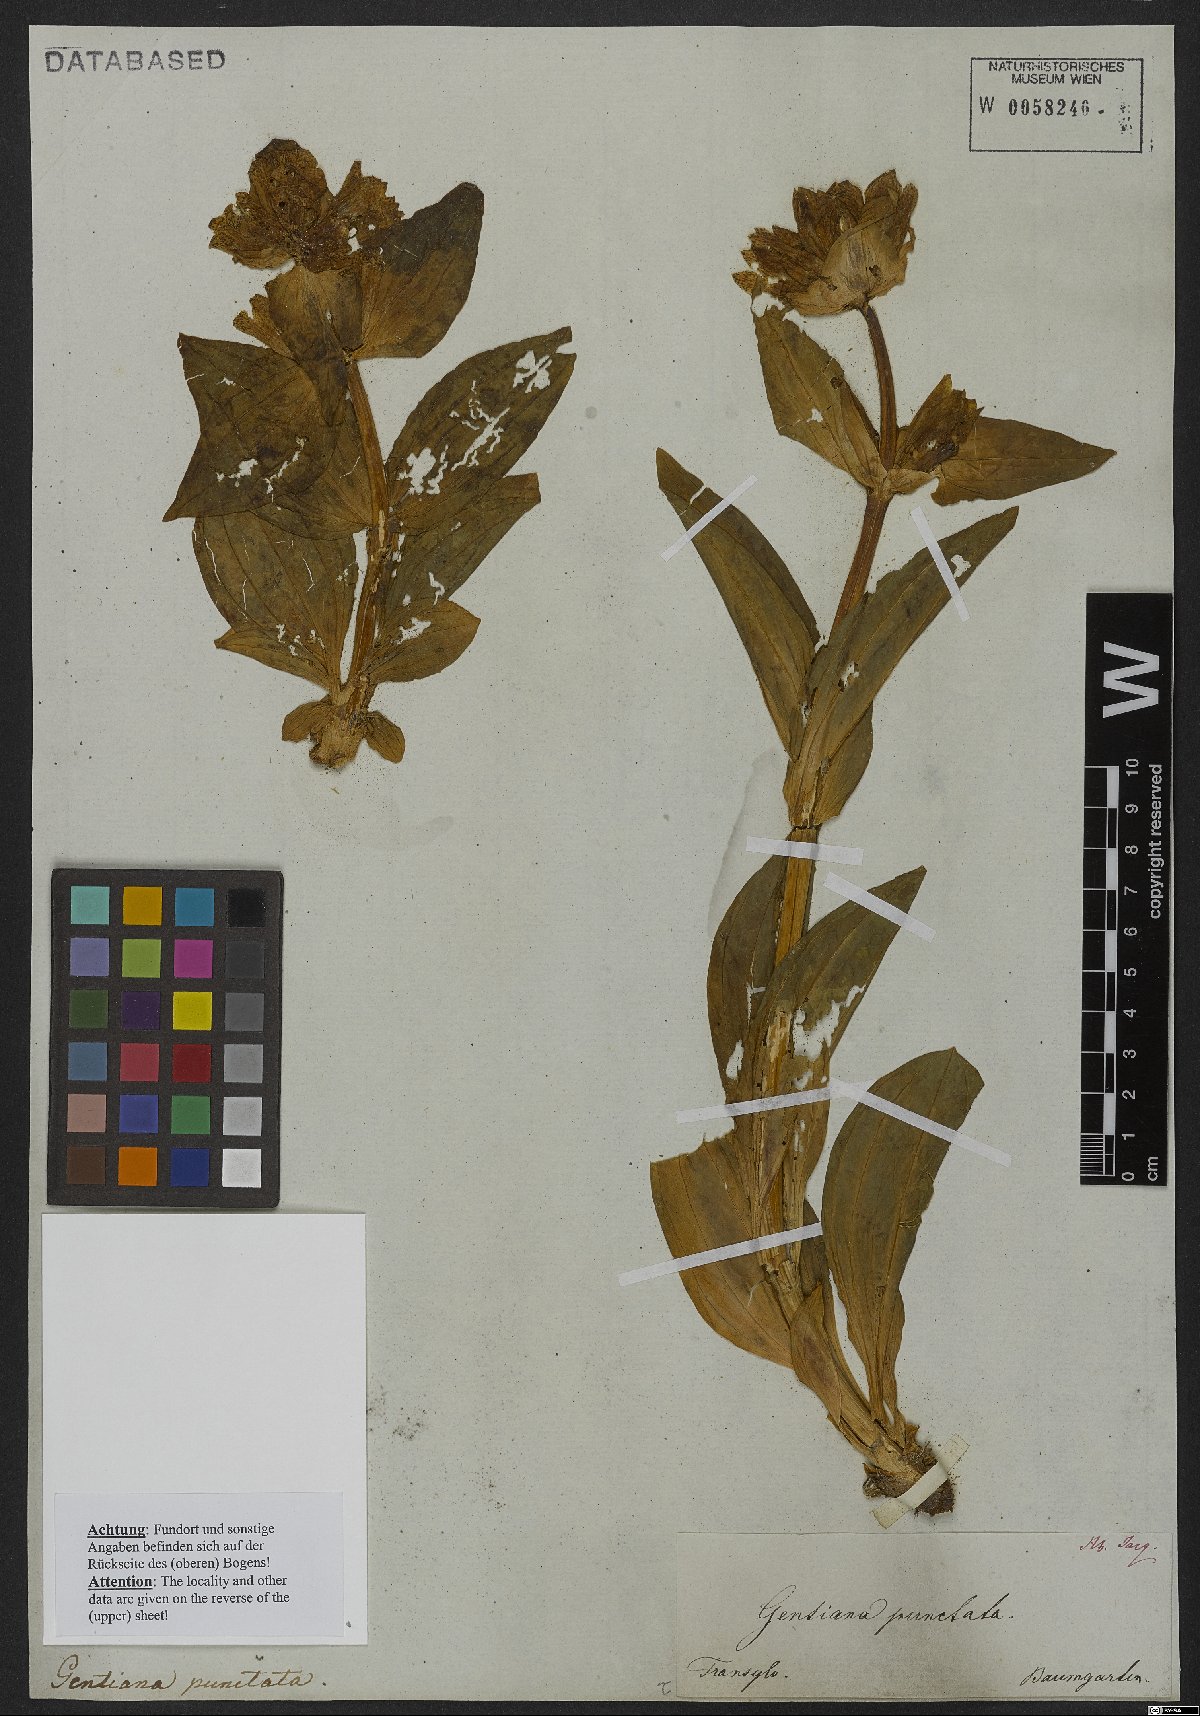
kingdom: Plantae
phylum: Tracheophyta
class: Magnoliopsida
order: Gentianales
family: Gentianaceae
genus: Gentiana
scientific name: Gentiana punctata
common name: Spotted gentian
